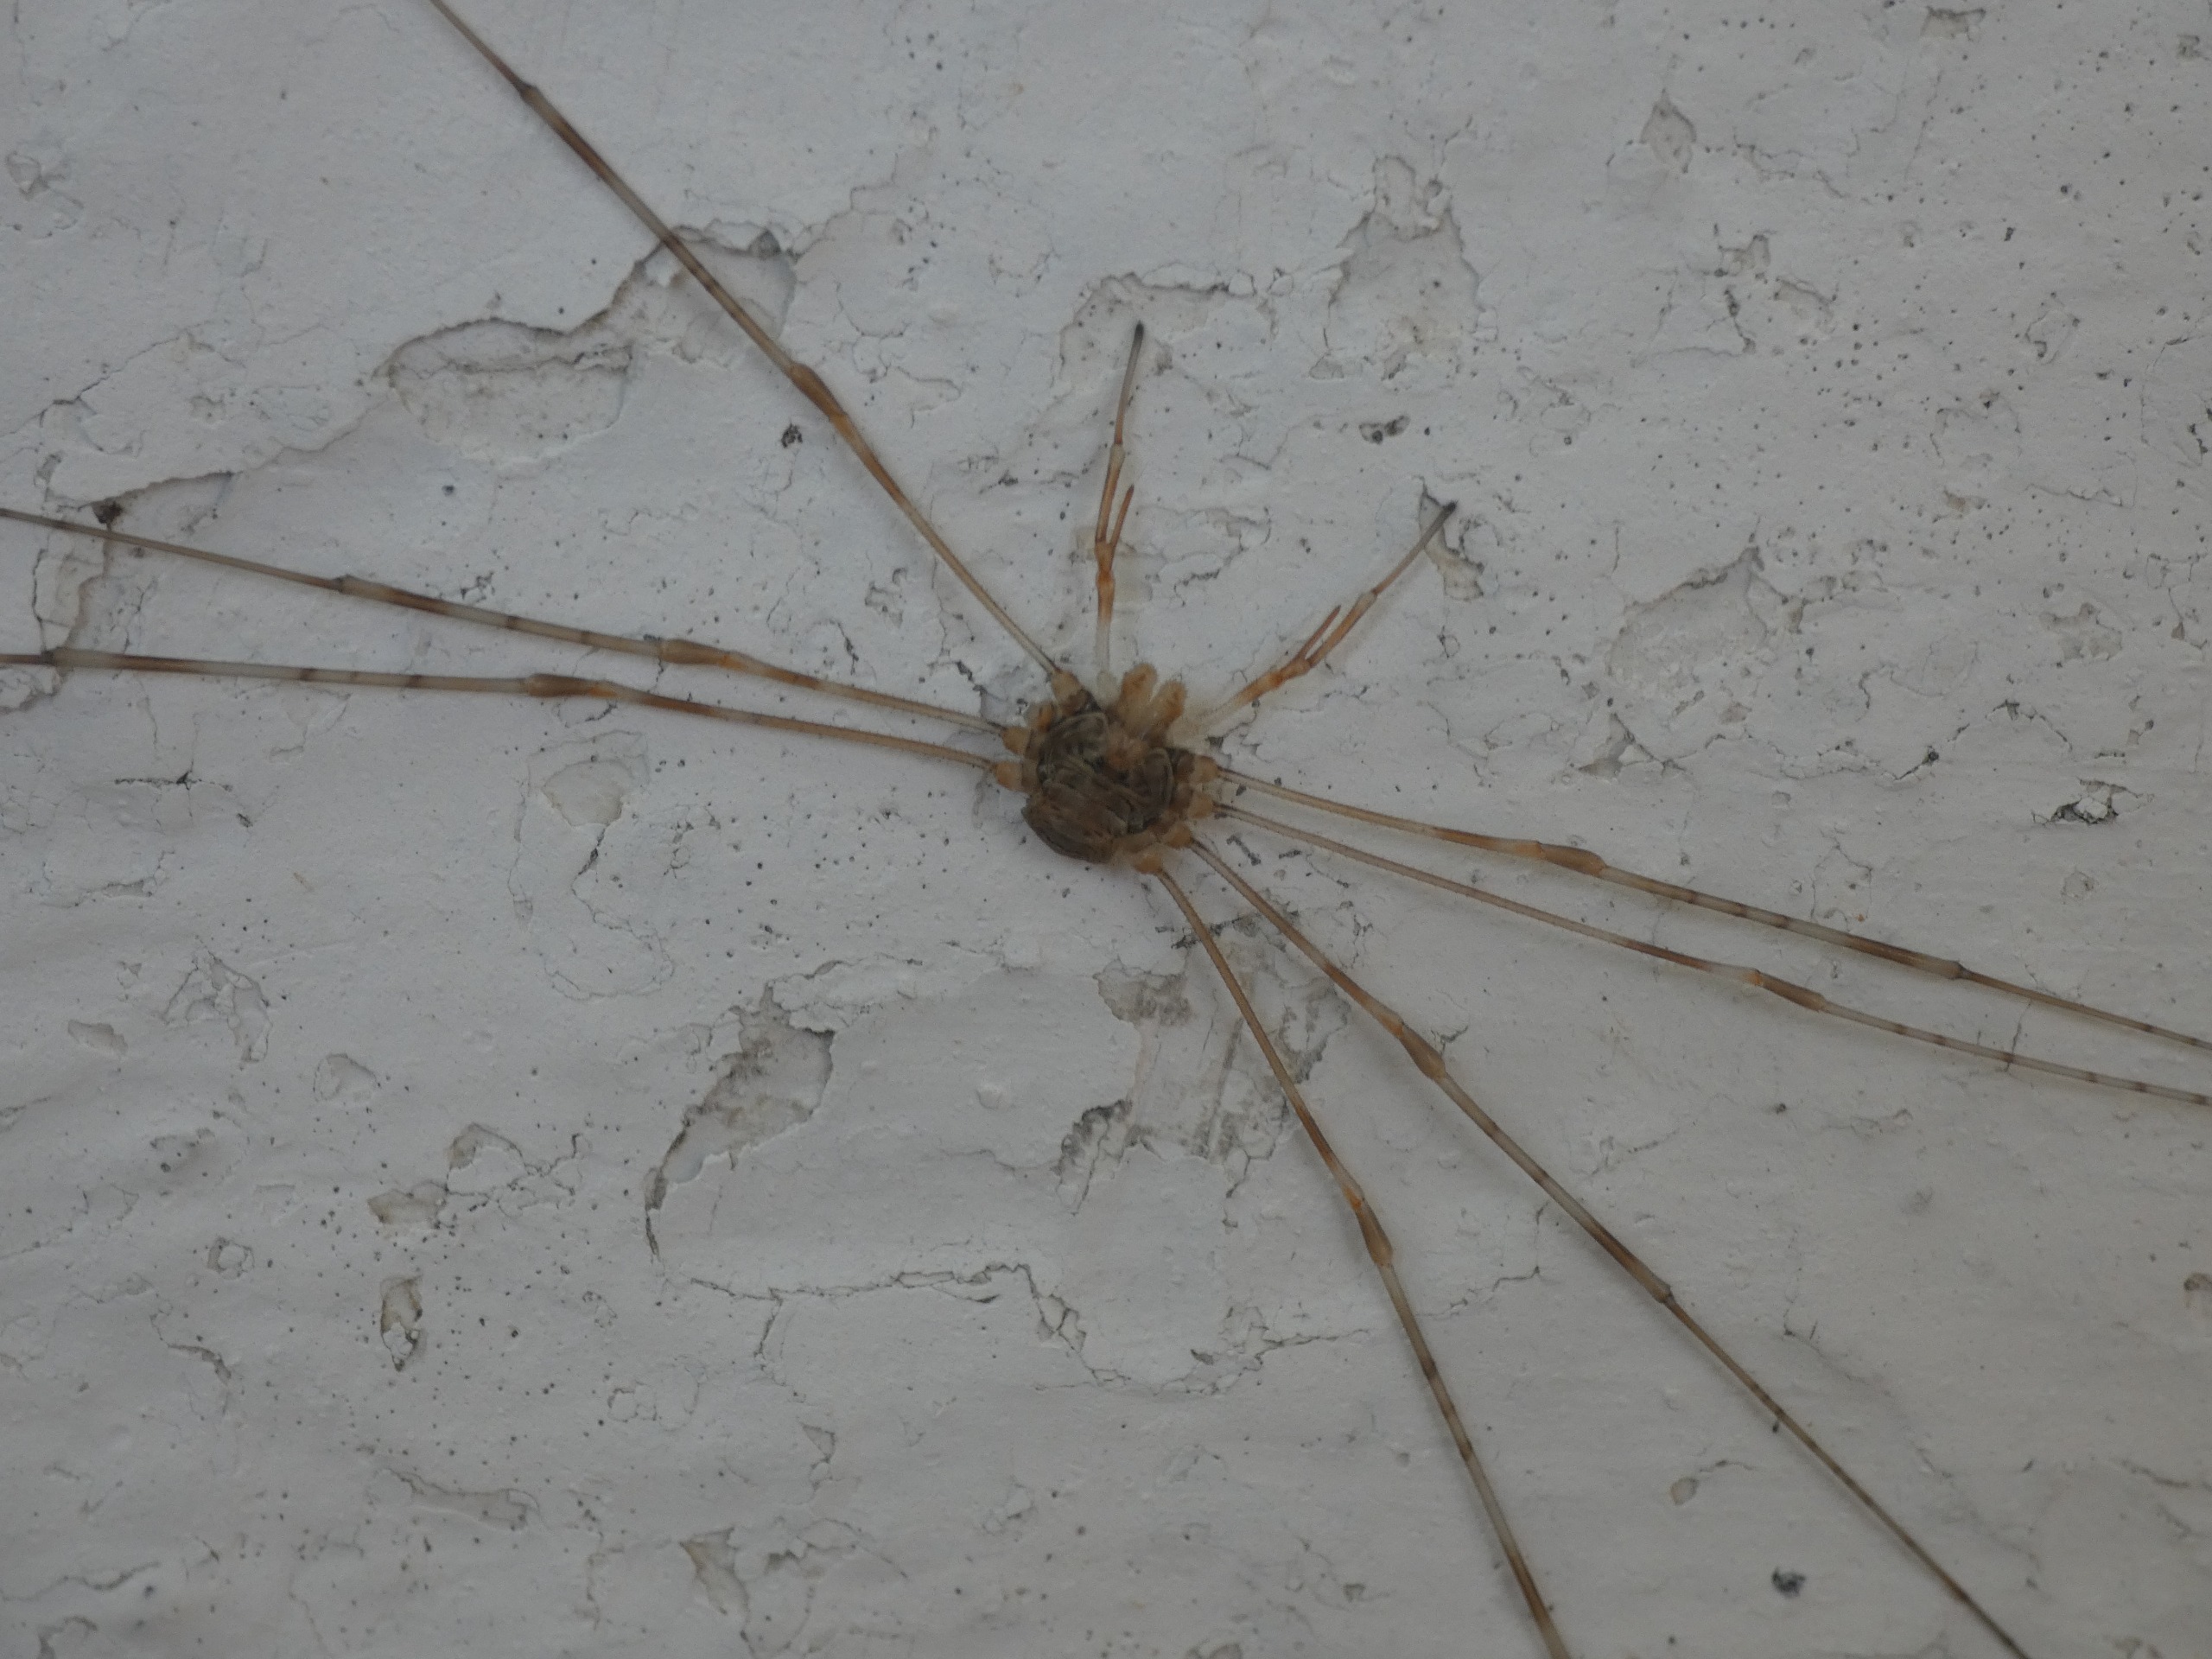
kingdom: Animalia
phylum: Arthropoda
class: Arachnida
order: Opiliones
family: Phalangiidae
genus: Dicranopalpus
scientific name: Dicranopalpus ramosus
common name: Gaffelmejer
